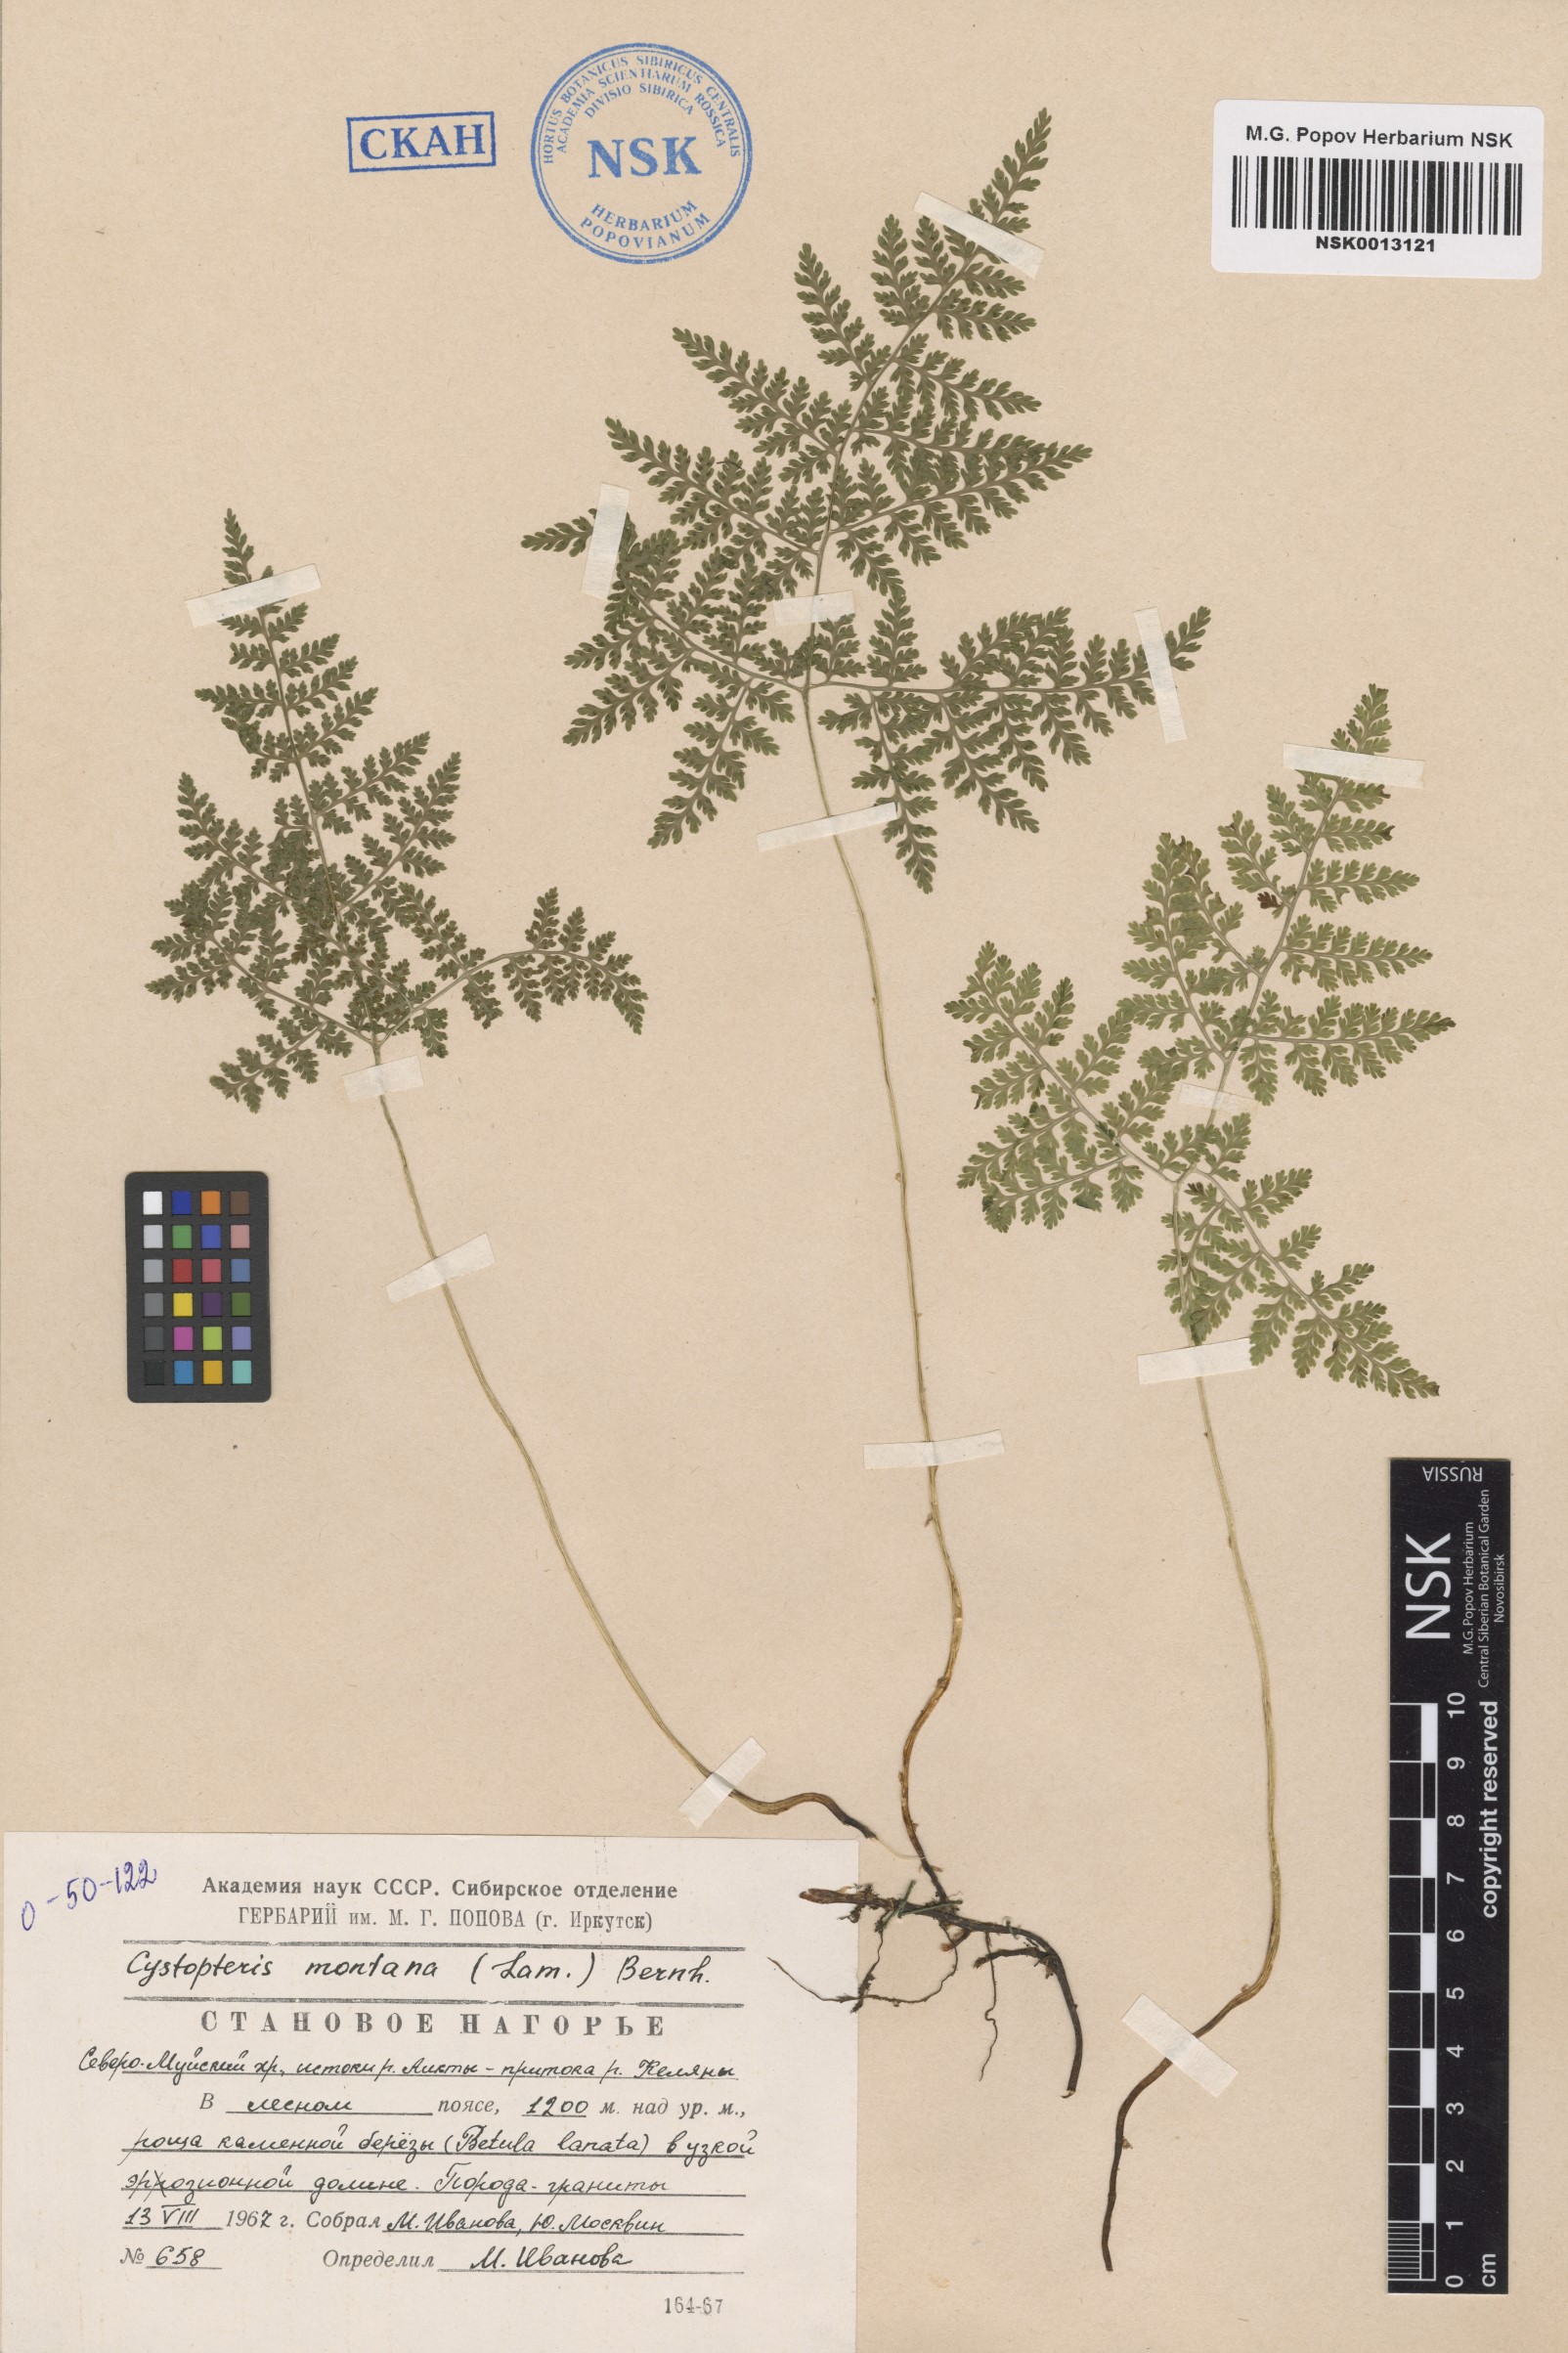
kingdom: Plantae
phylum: Tracheophyta
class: Polypodiopsida
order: Polypodiales
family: Cystopteridaceae
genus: Cystopteris
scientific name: Cystopteris montana
